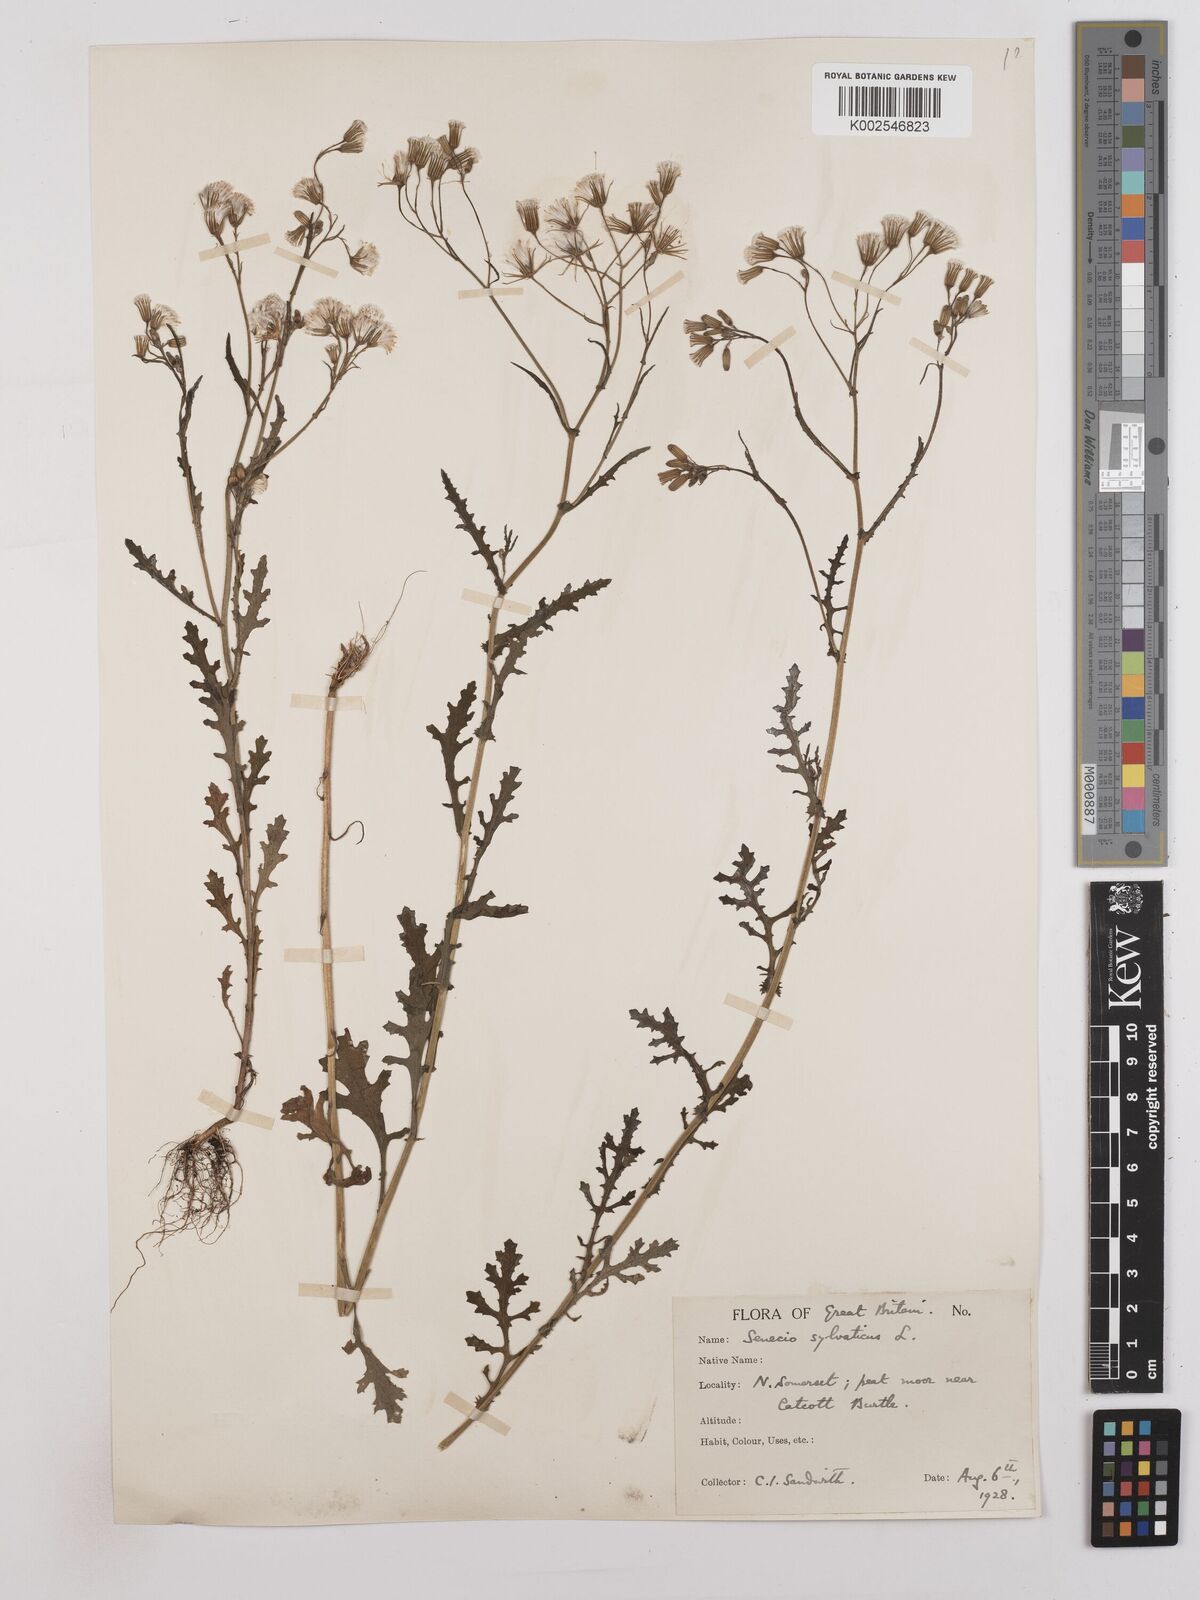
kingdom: Plantae
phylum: Tracheophyta
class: Magnoliopsida
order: Asterales
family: Asteraceae
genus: Senecio
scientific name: Senecio sylvaticus
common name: Woodland ragwort
